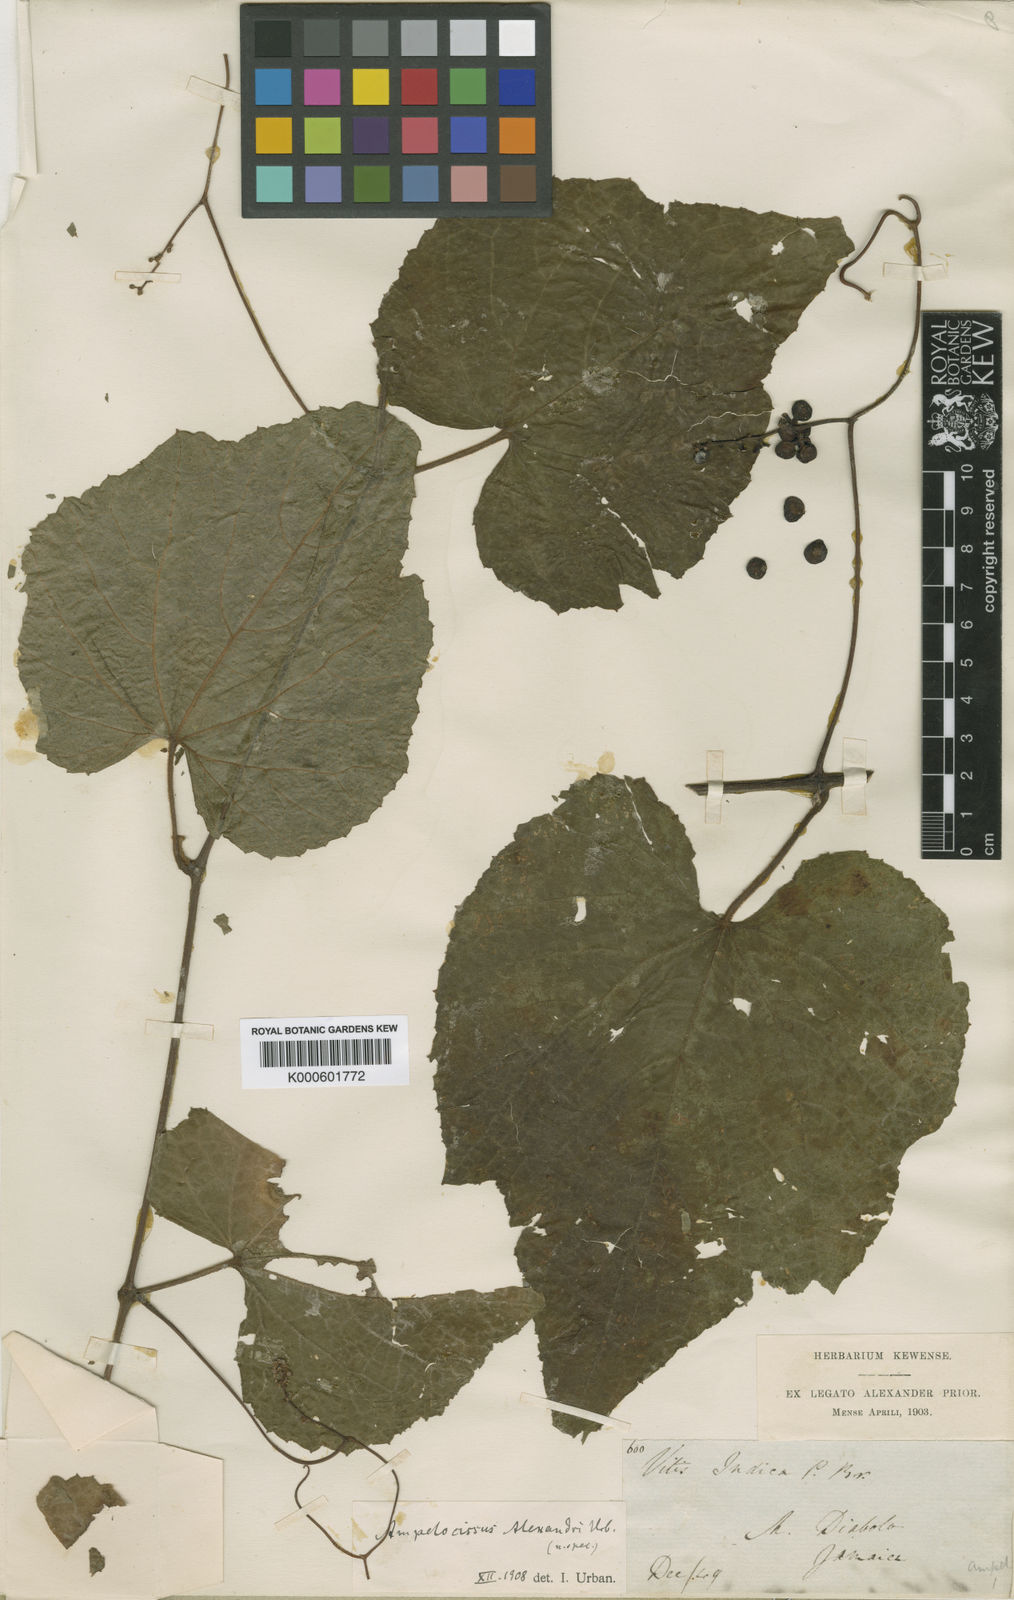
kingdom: Plantae
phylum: Tracheophyta
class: Magnoliopsida
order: Vitales
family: Vitaceae
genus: Ampelocissus
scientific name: Ampelocissus robinsonii
